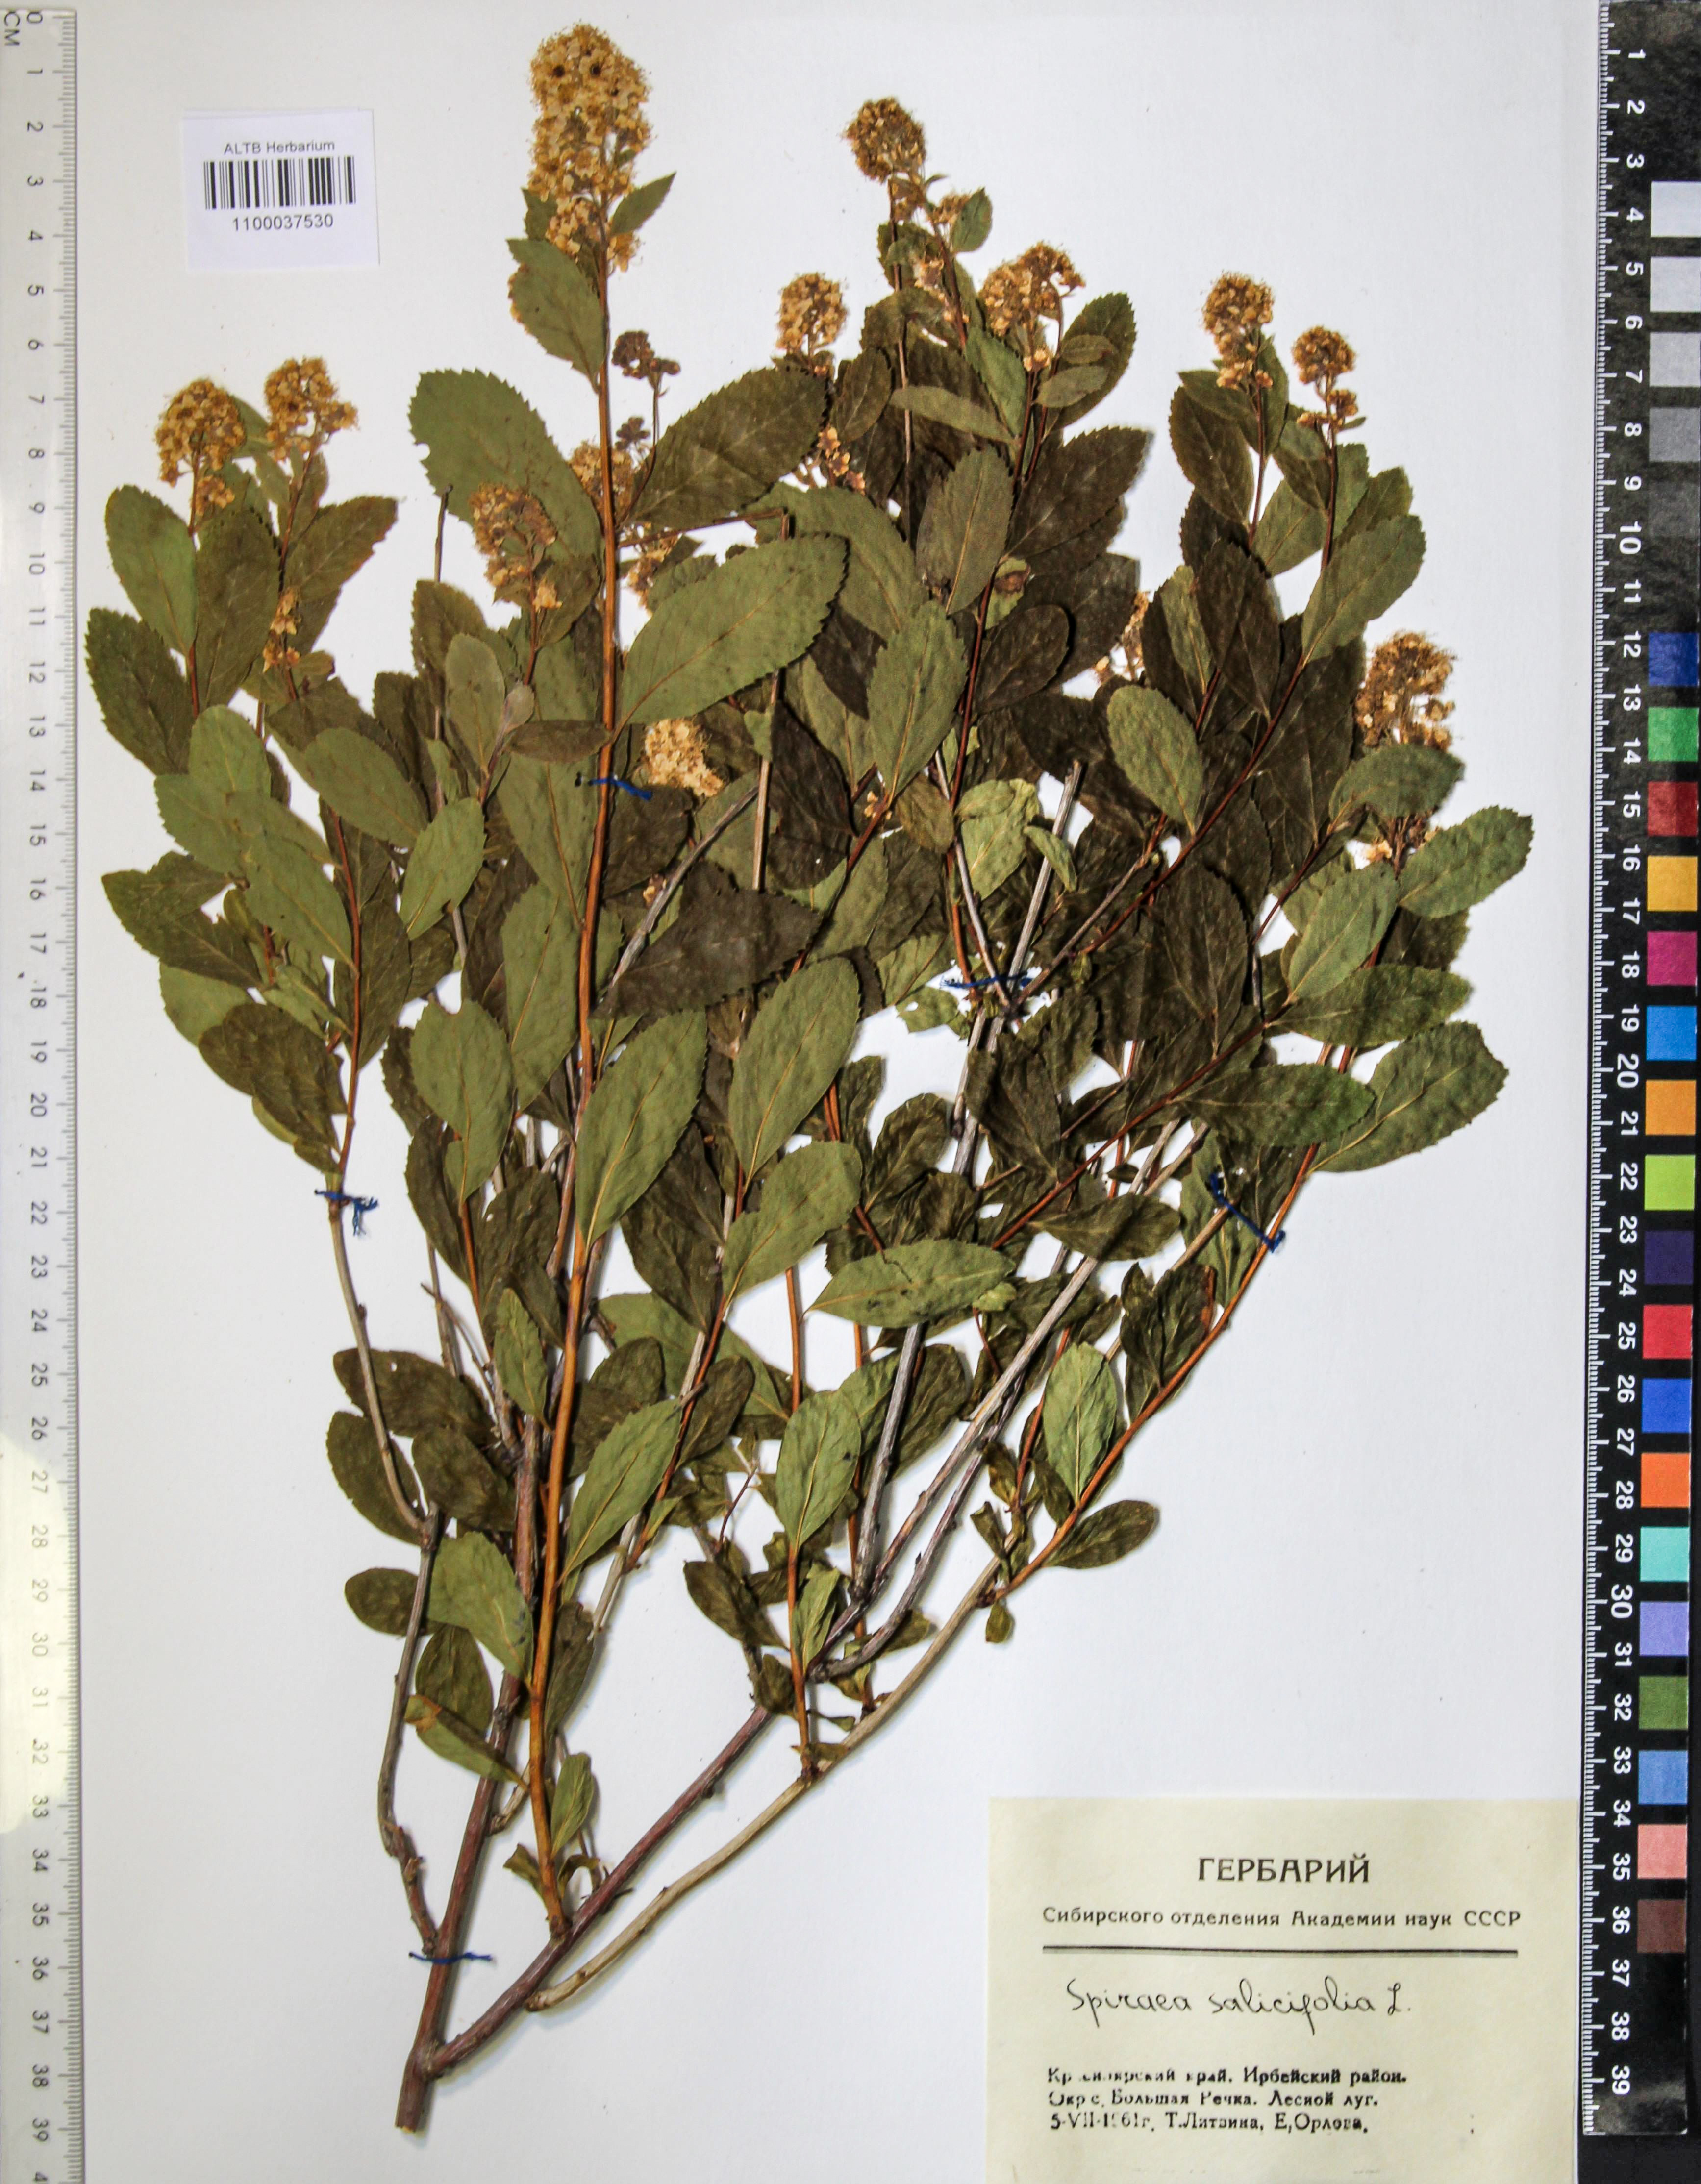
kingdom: Plantae
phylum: Tracheophyta
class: Magnoliopsida
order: Rosales
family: Rosaceae
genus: Spiraea
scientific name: Spiraea salicifolia
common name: Bridewort
